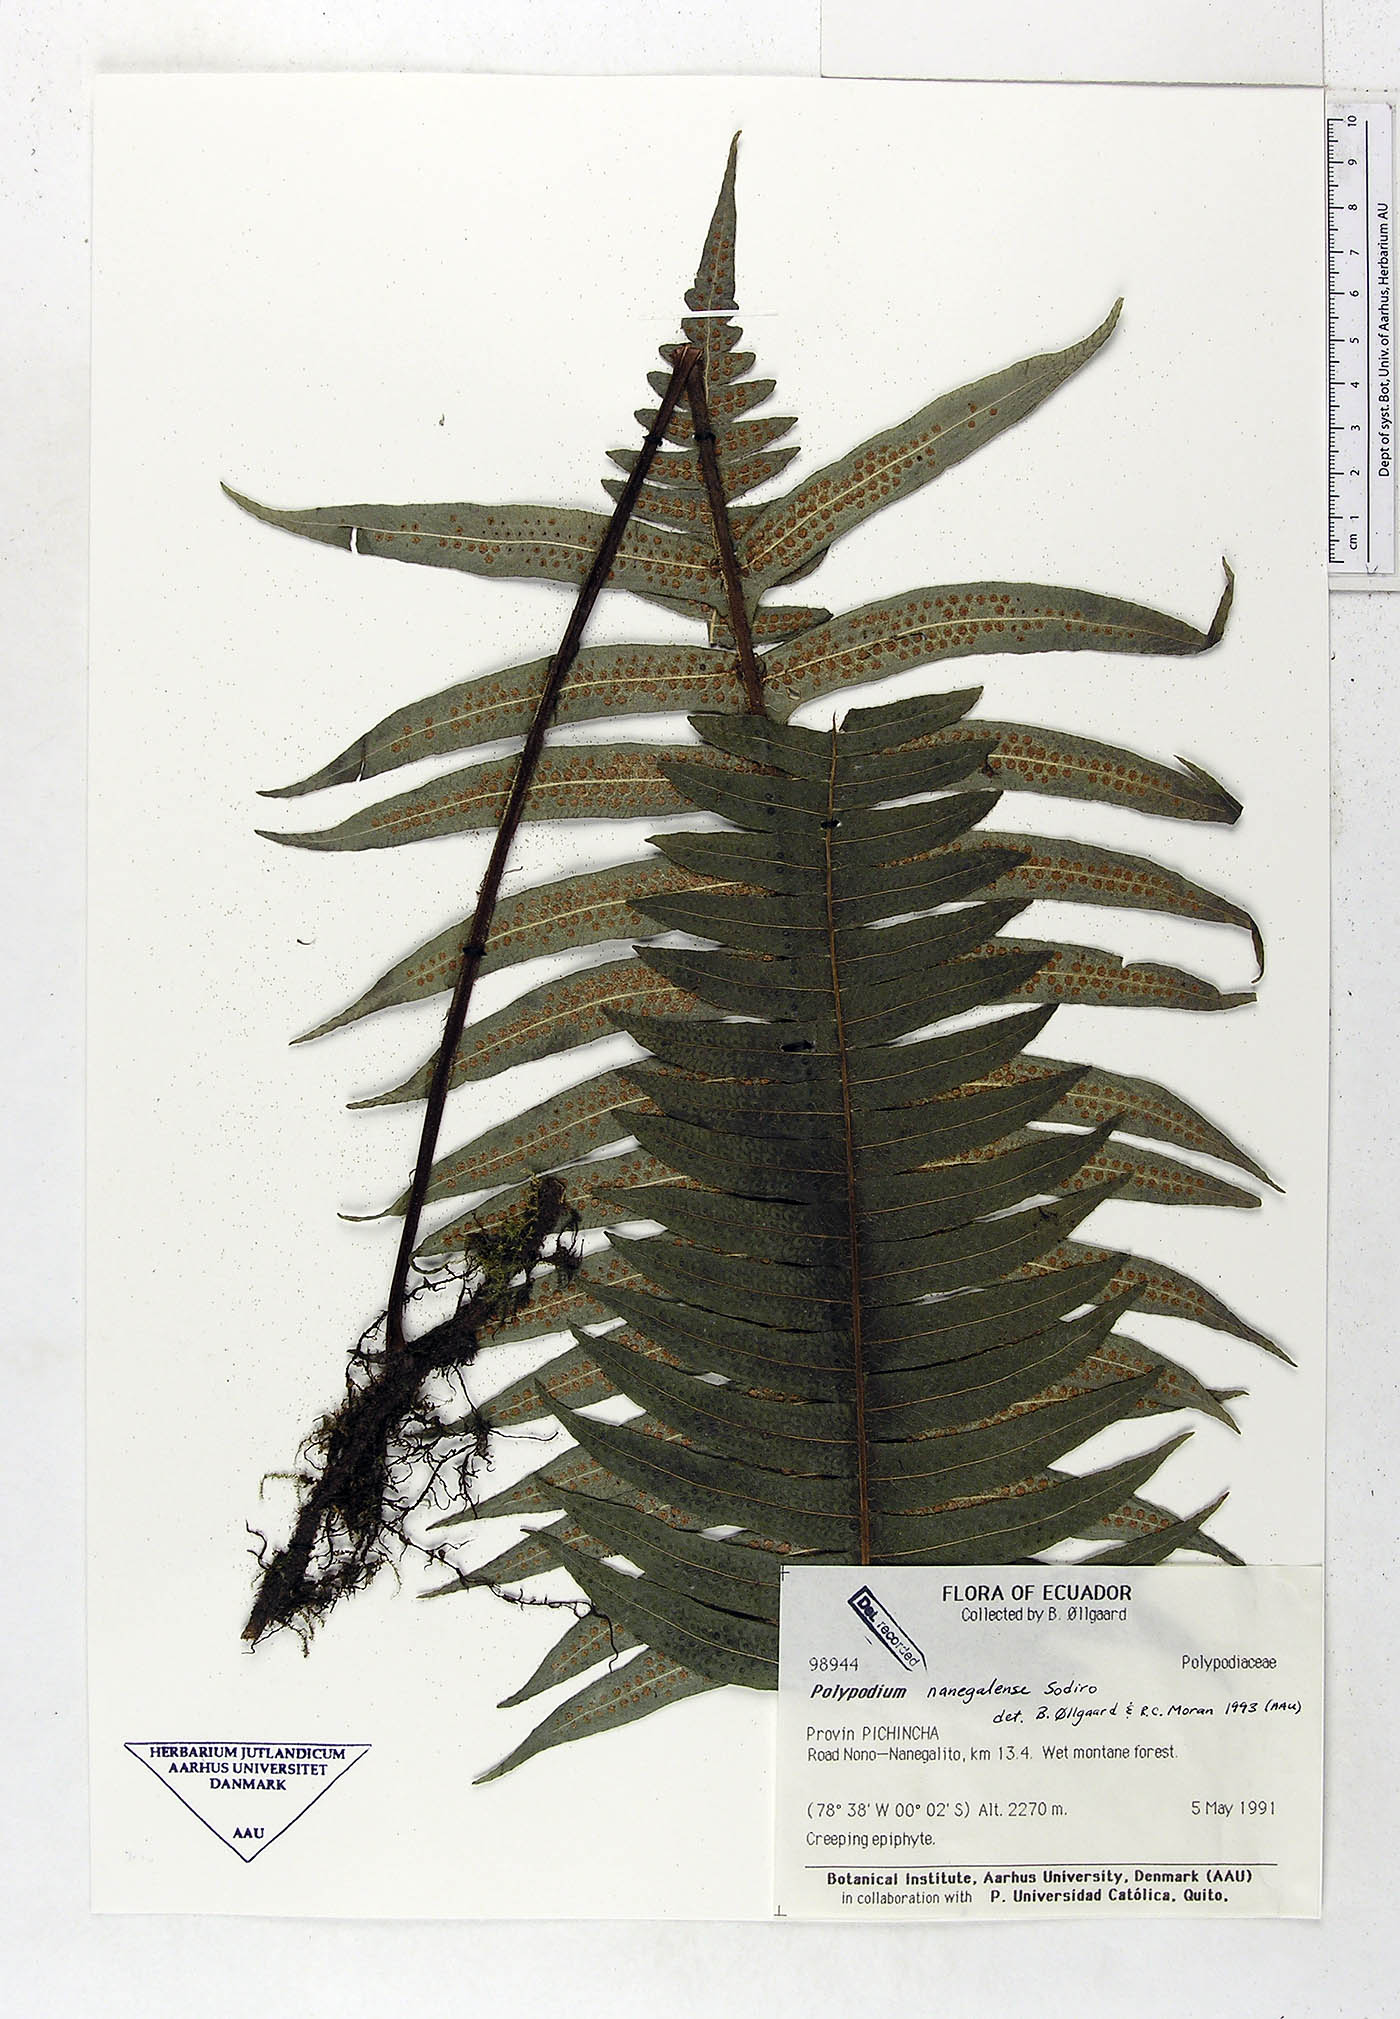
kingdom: Plantae
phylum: Tracheophyta
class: Polypodiopsida
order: Polypodiales
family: Polypodiaceae
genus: Serpocaulon
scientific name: Serpocaulon nanegalense
